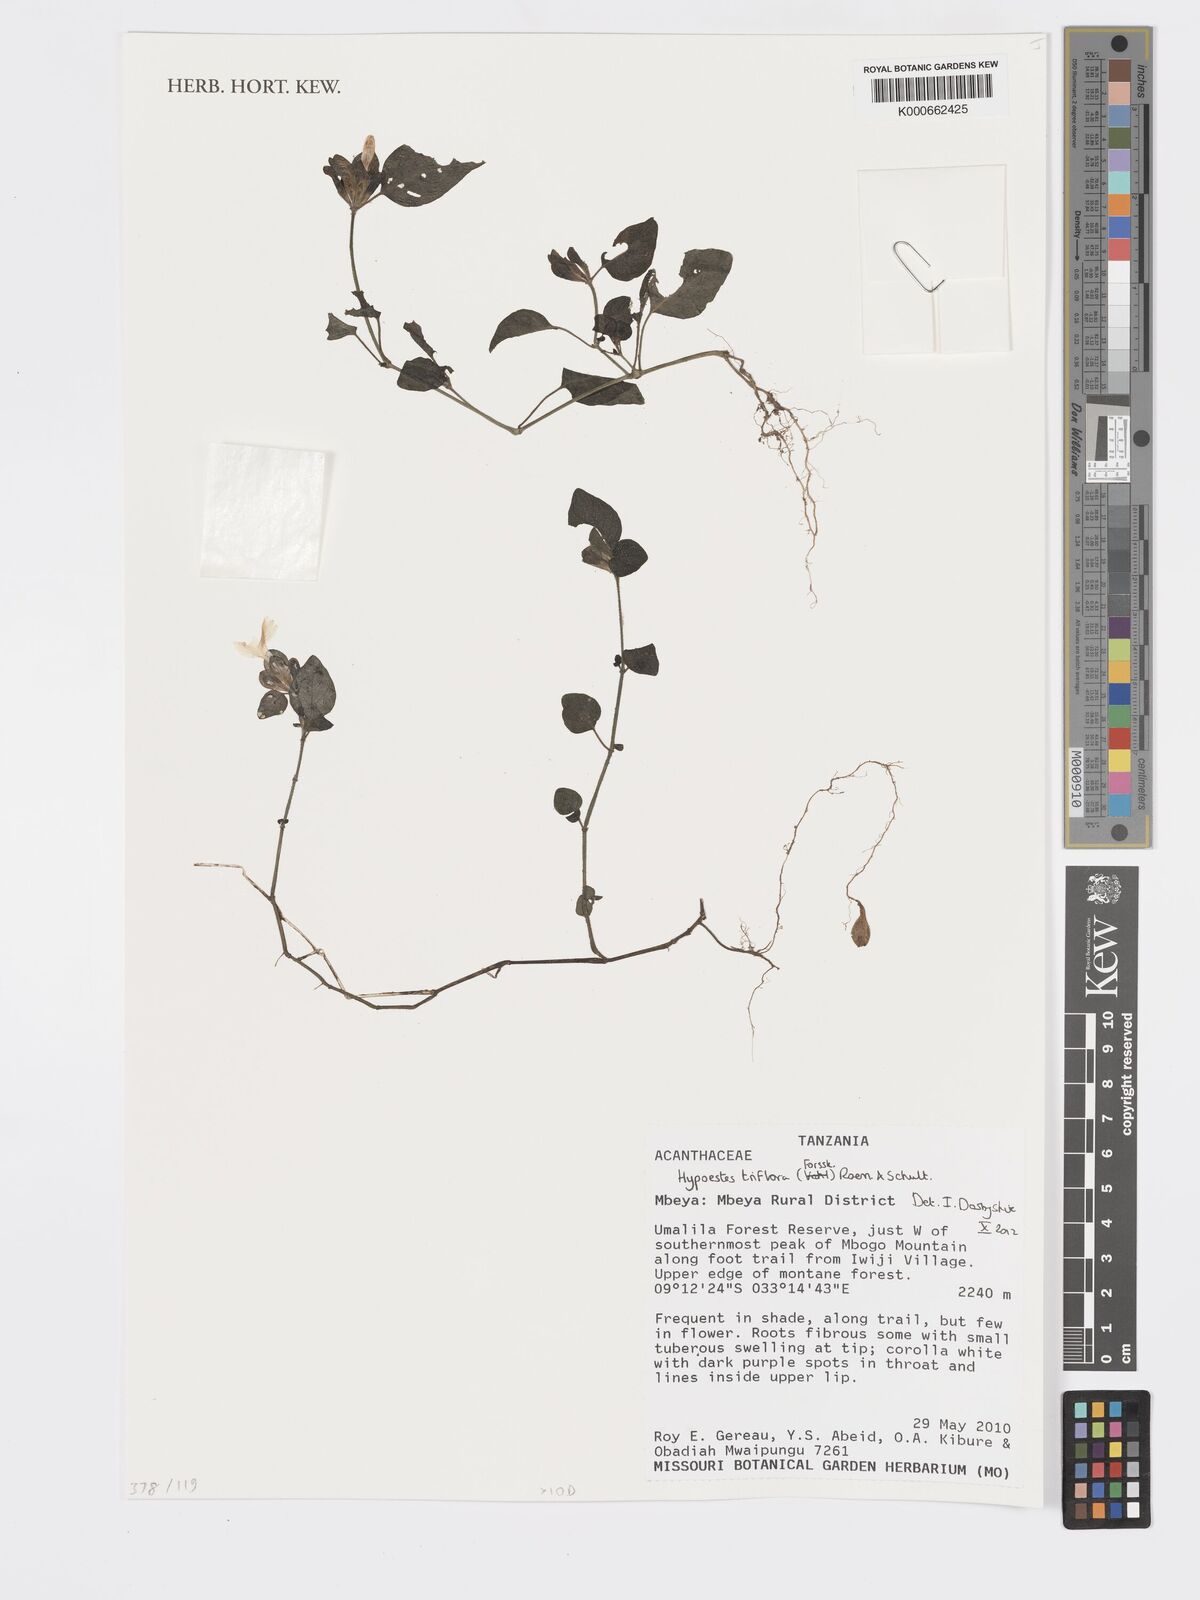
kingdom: Plantae
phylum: Tracheophyta
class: Magnoliopsida
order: Lamiales
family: Acanthaceae
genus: Hypoestes
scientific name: Hypoestes triflora
